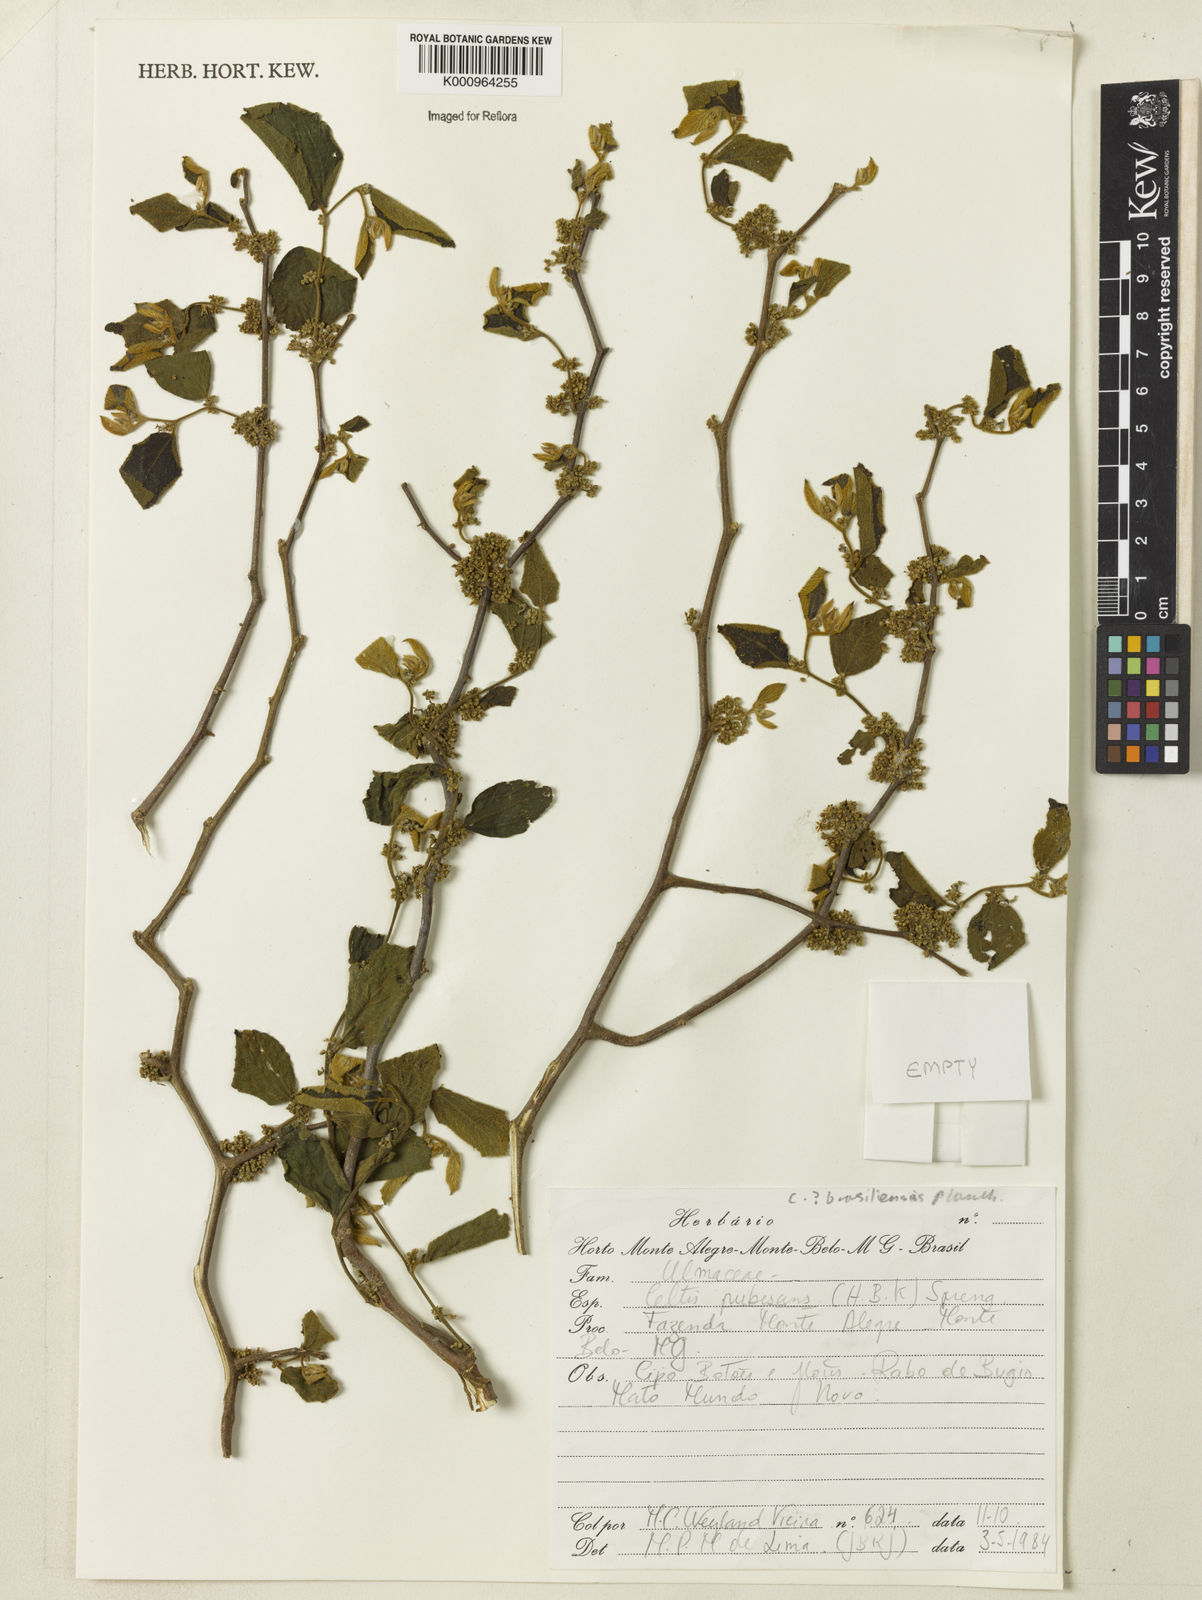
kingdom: Plantae
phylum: Tracheophyta
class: Magnoliopsida
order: Rosales
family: Cannabaceae
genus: Celtis
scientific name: Celtis iguanaea
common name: Iguana hackberry
